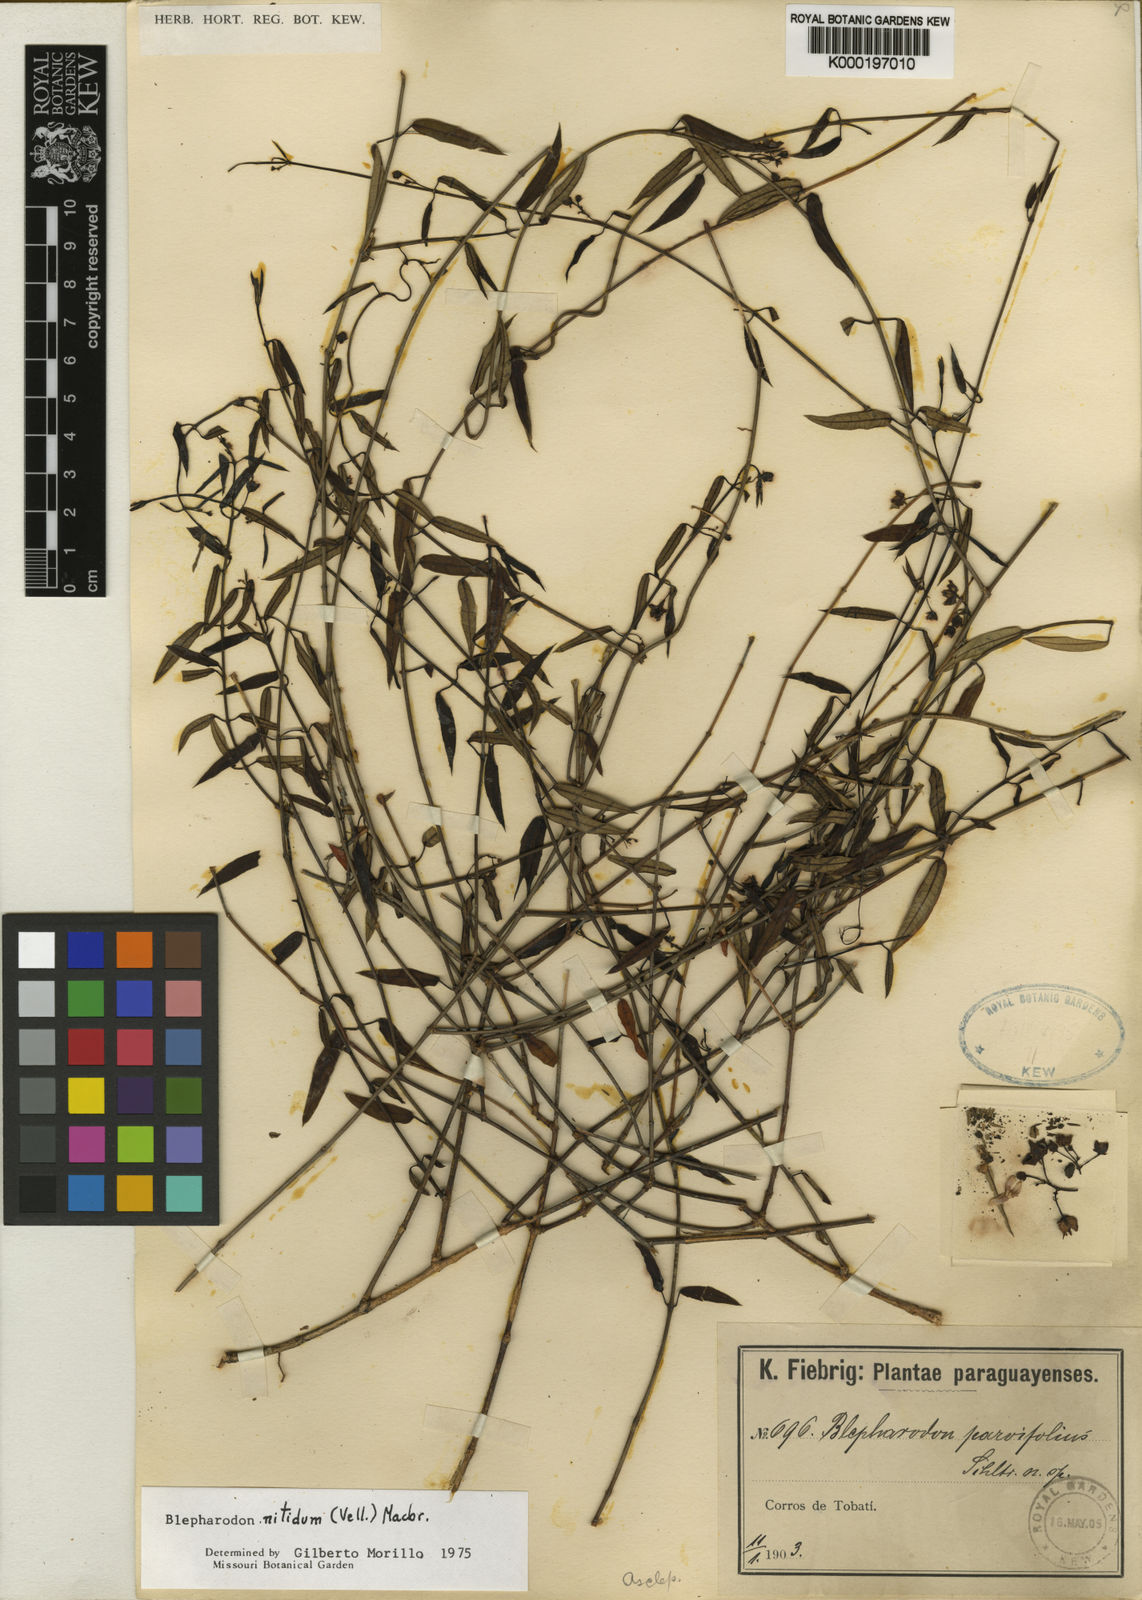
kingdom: Plantae
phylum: Tracheophyta
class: Magnoliopsida
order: Gentianales
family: Apocynaceae
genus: Blepharodon
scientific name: Blepharodon pictum
